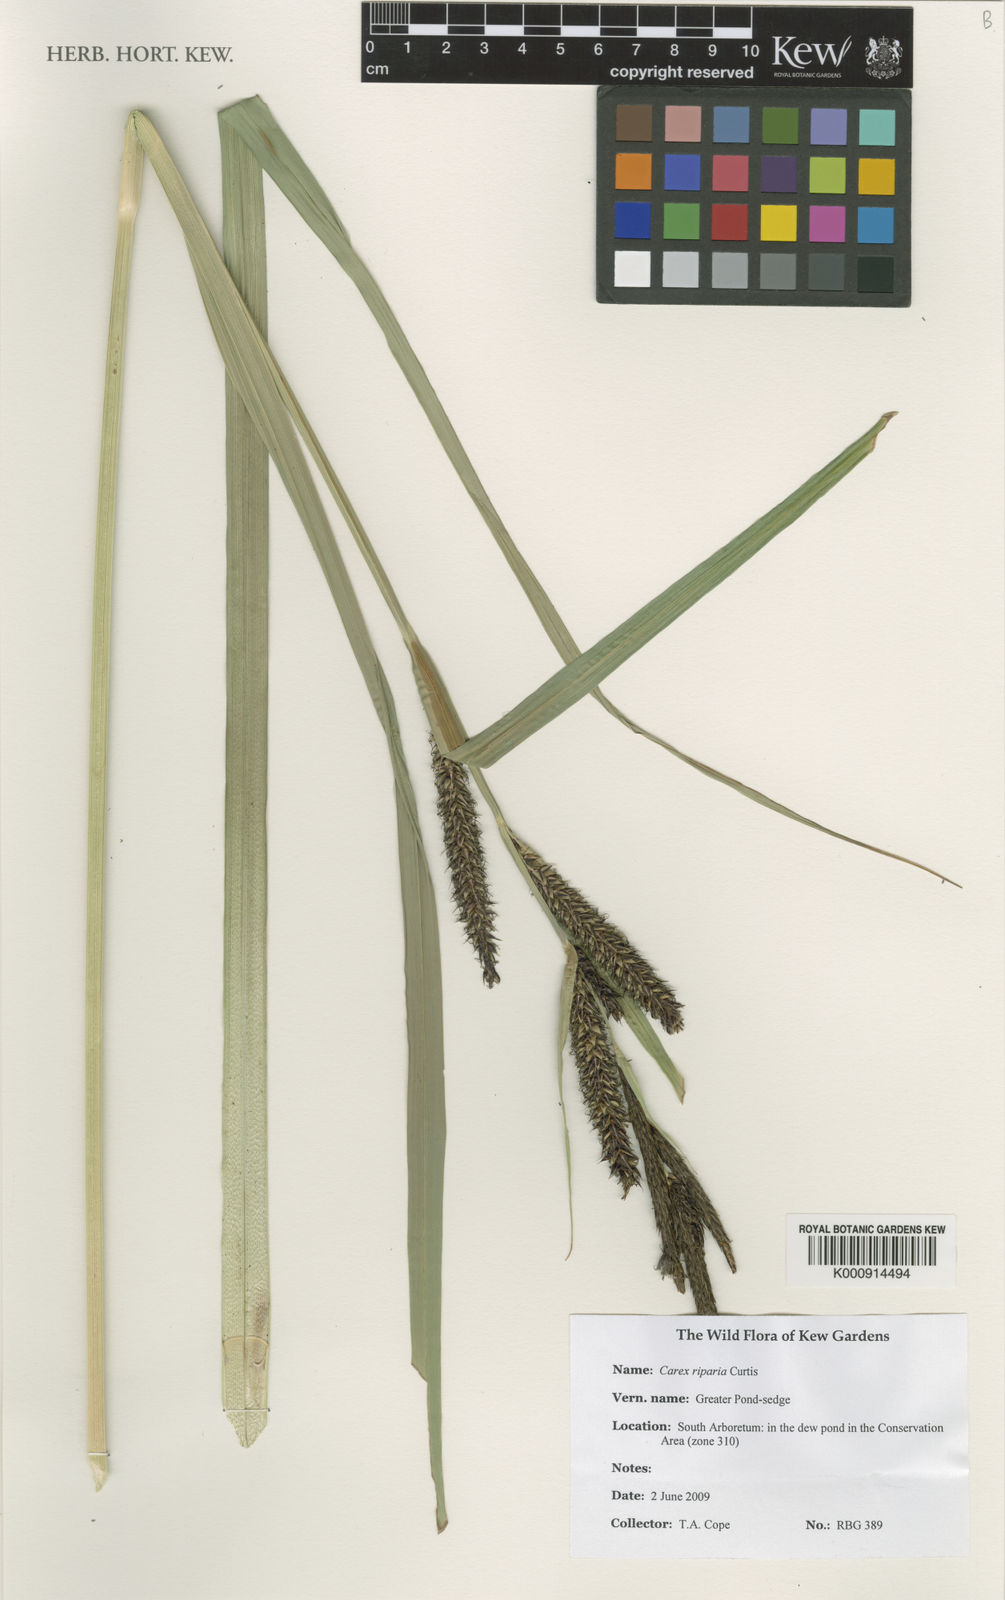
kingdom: Plantae
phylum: Tracheophyta
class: Liliopsida
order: Poales
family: Cyperaceae
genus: Carex
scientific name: Carex riparia
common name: Greater pond-sedge
